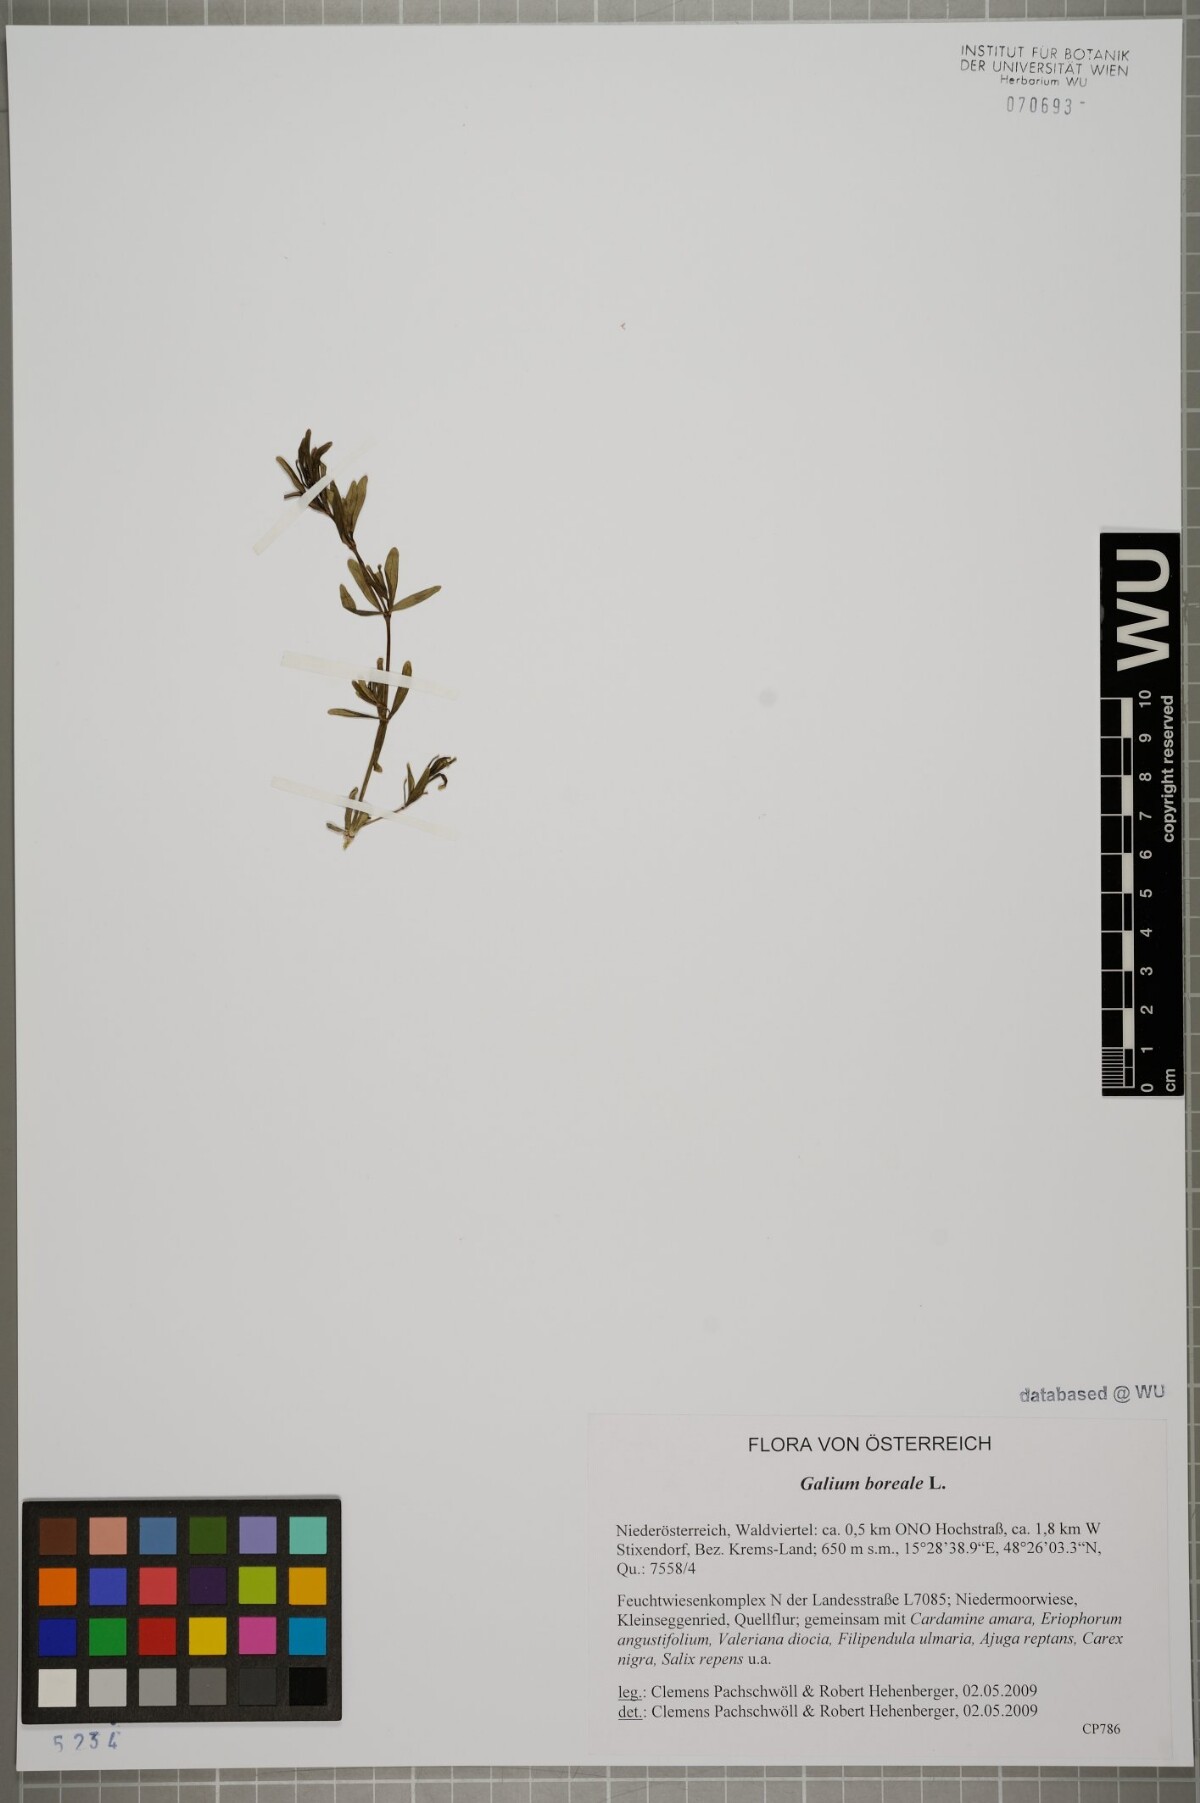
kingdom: Plantae
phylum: Tracheophyta
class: Magnoliopsida
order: Gentianales
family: Rubiaceae
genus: Galium
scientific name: Galium boreale
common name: Northern bedstraw
